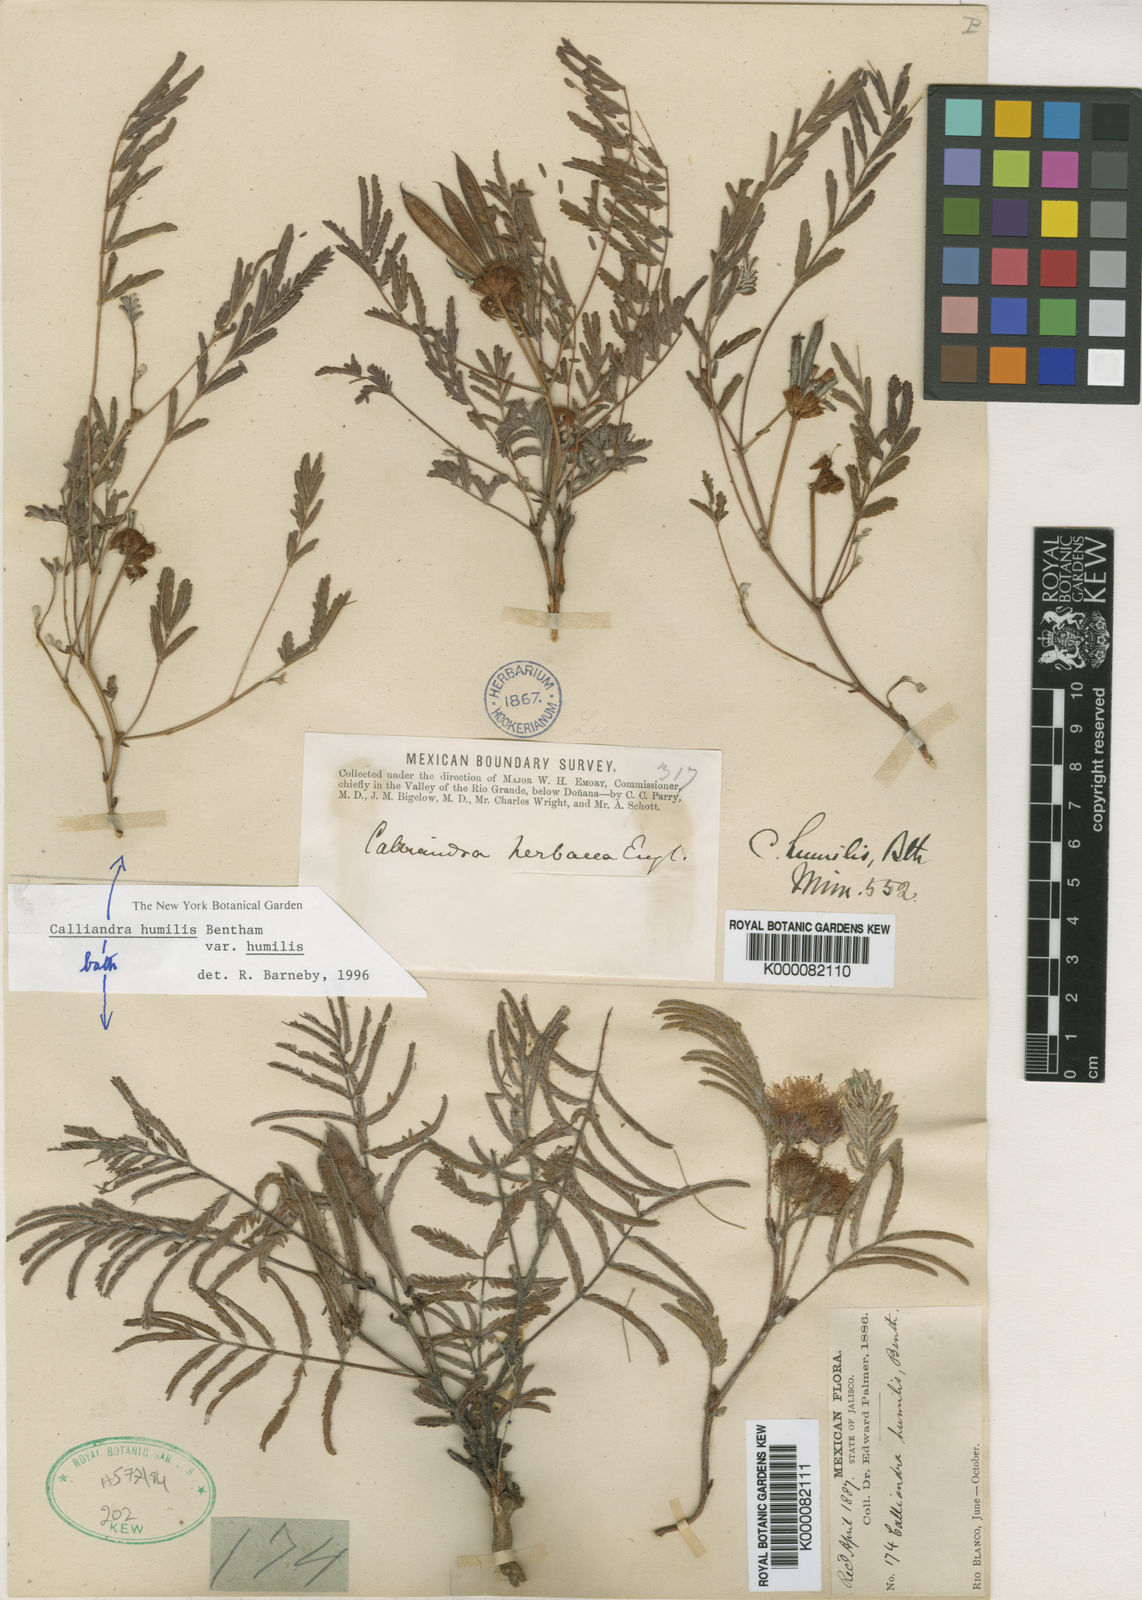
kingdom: Plantae
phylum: Tracheophyta
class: Magnoliopsida
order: Fabales
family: Fabaceae
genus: Calliandra
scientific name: Calliandra humilis
